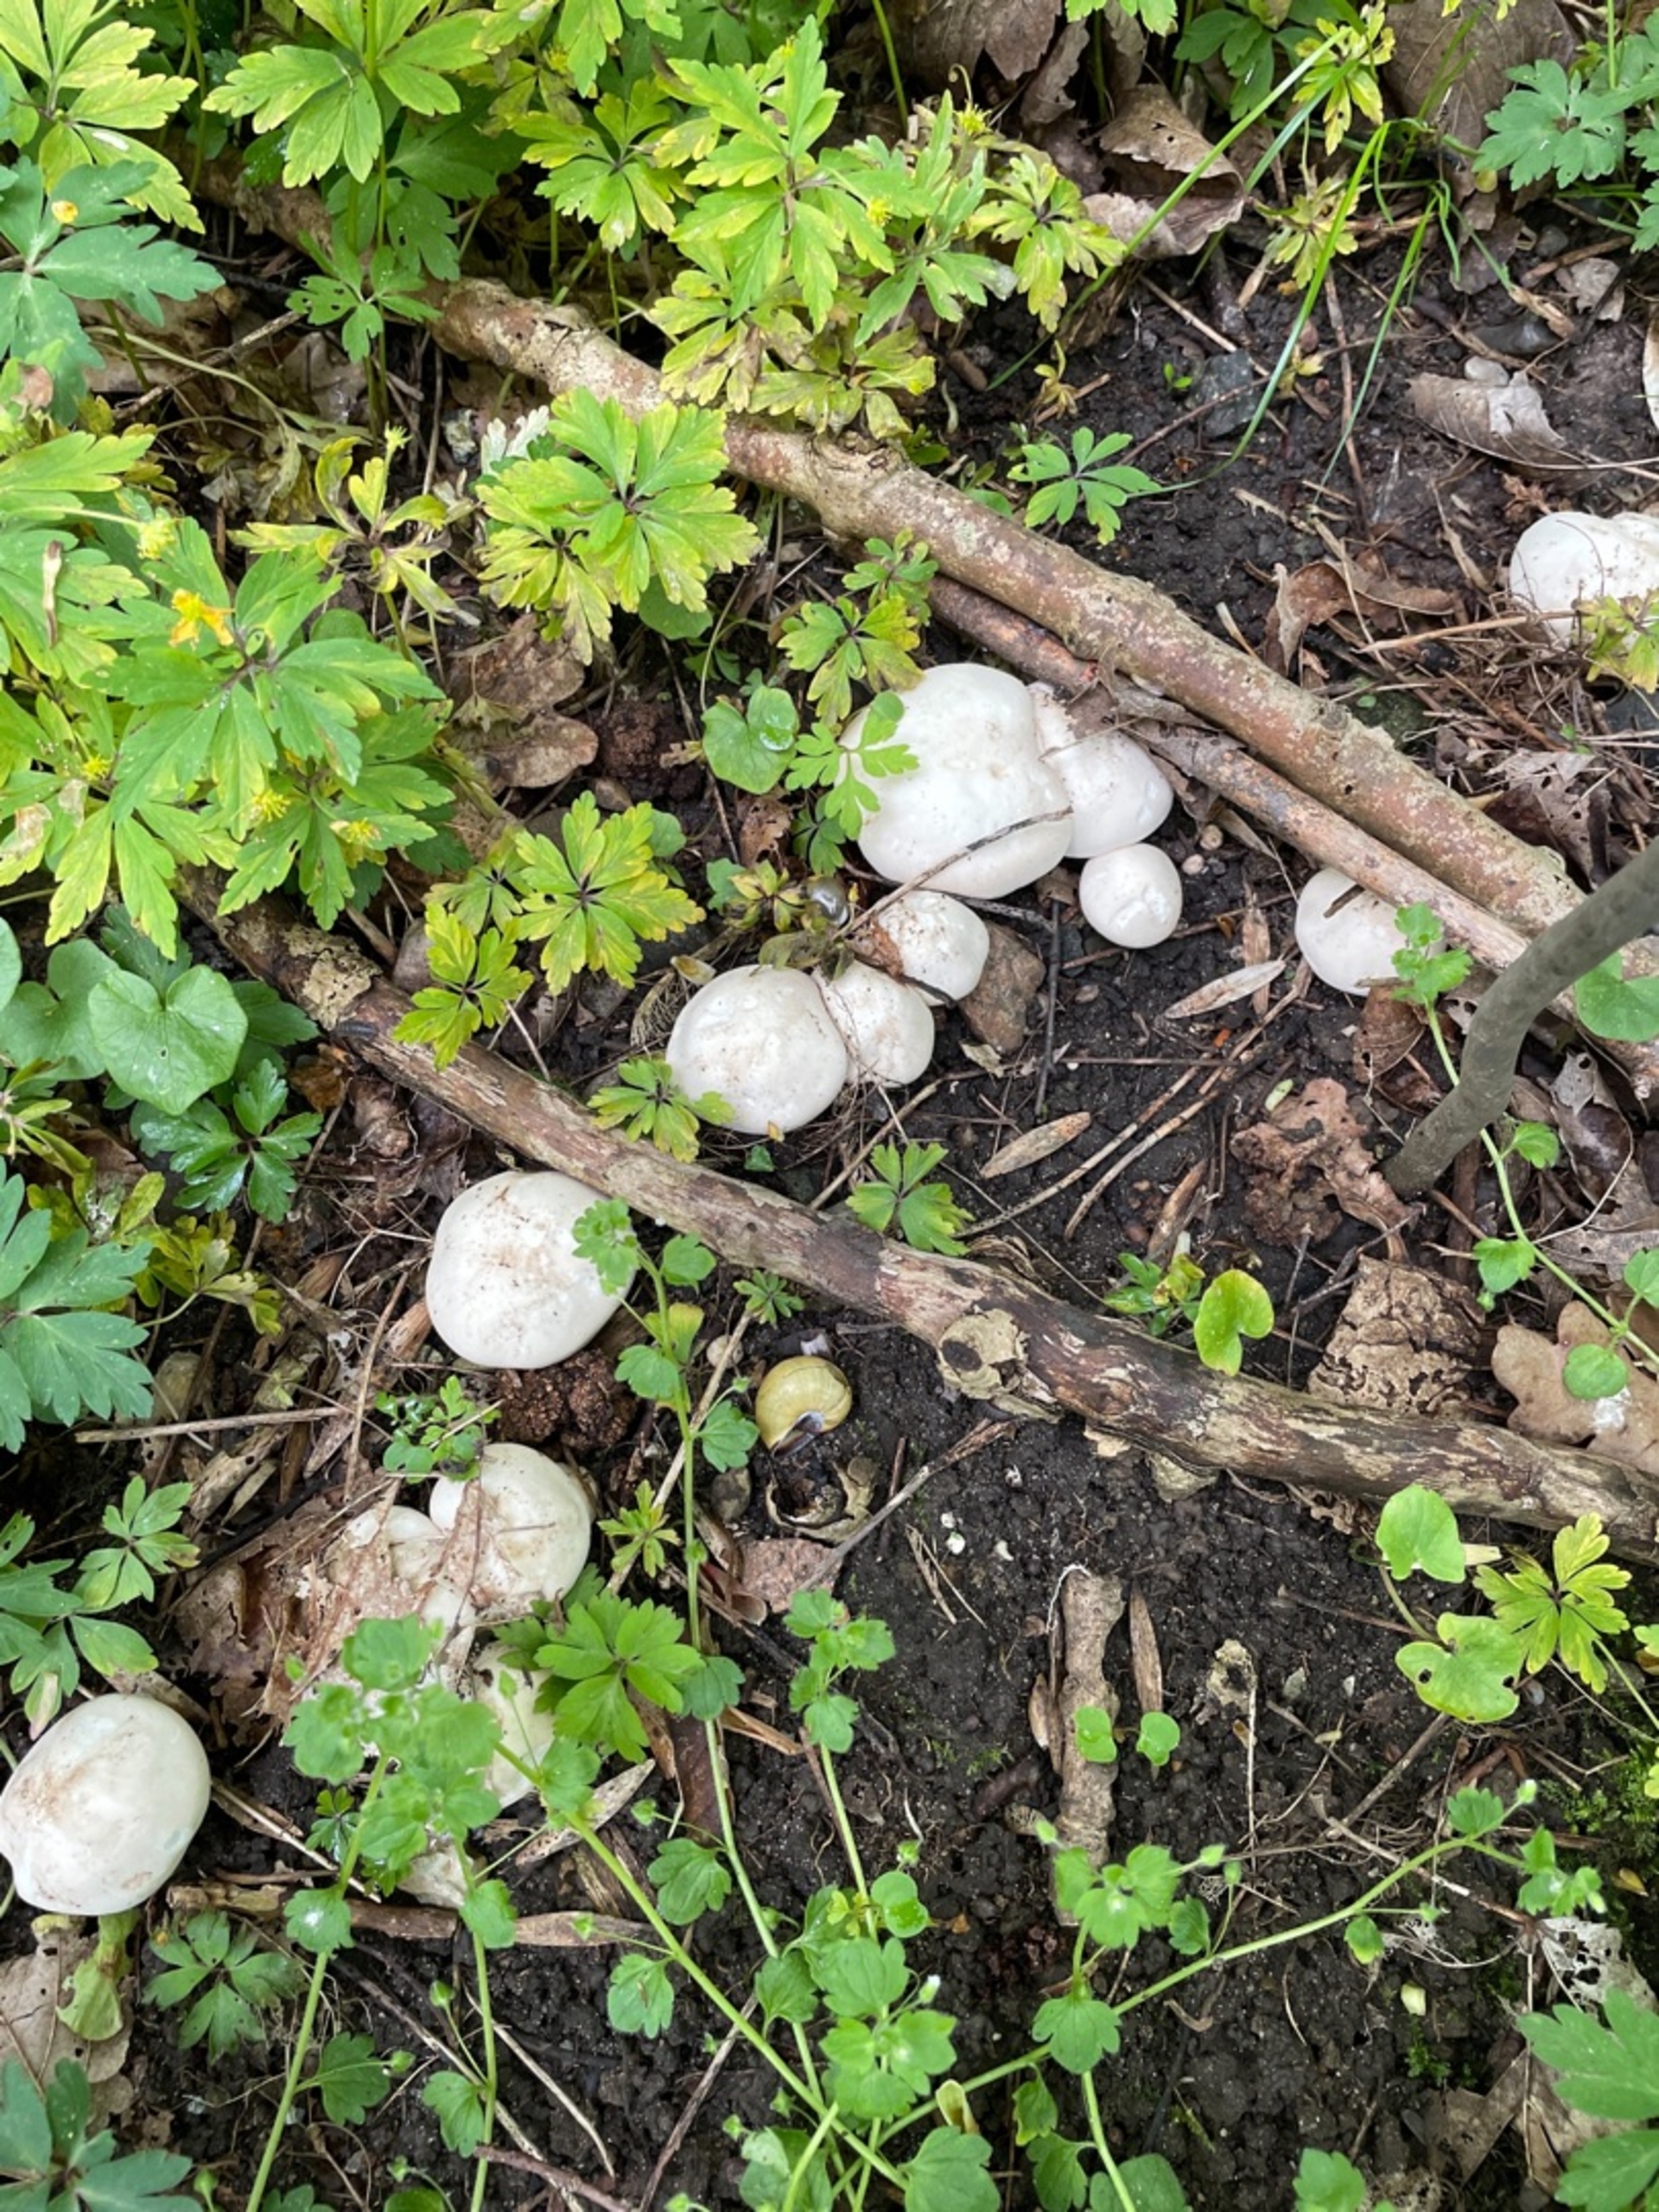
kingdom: Fungi
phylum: Basidiomycota
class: Agaricomycetes
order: Agaricales
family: Lyophyllaceae
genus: Calocybe
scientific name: Calocybe gambosa
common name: Vårmusseron
